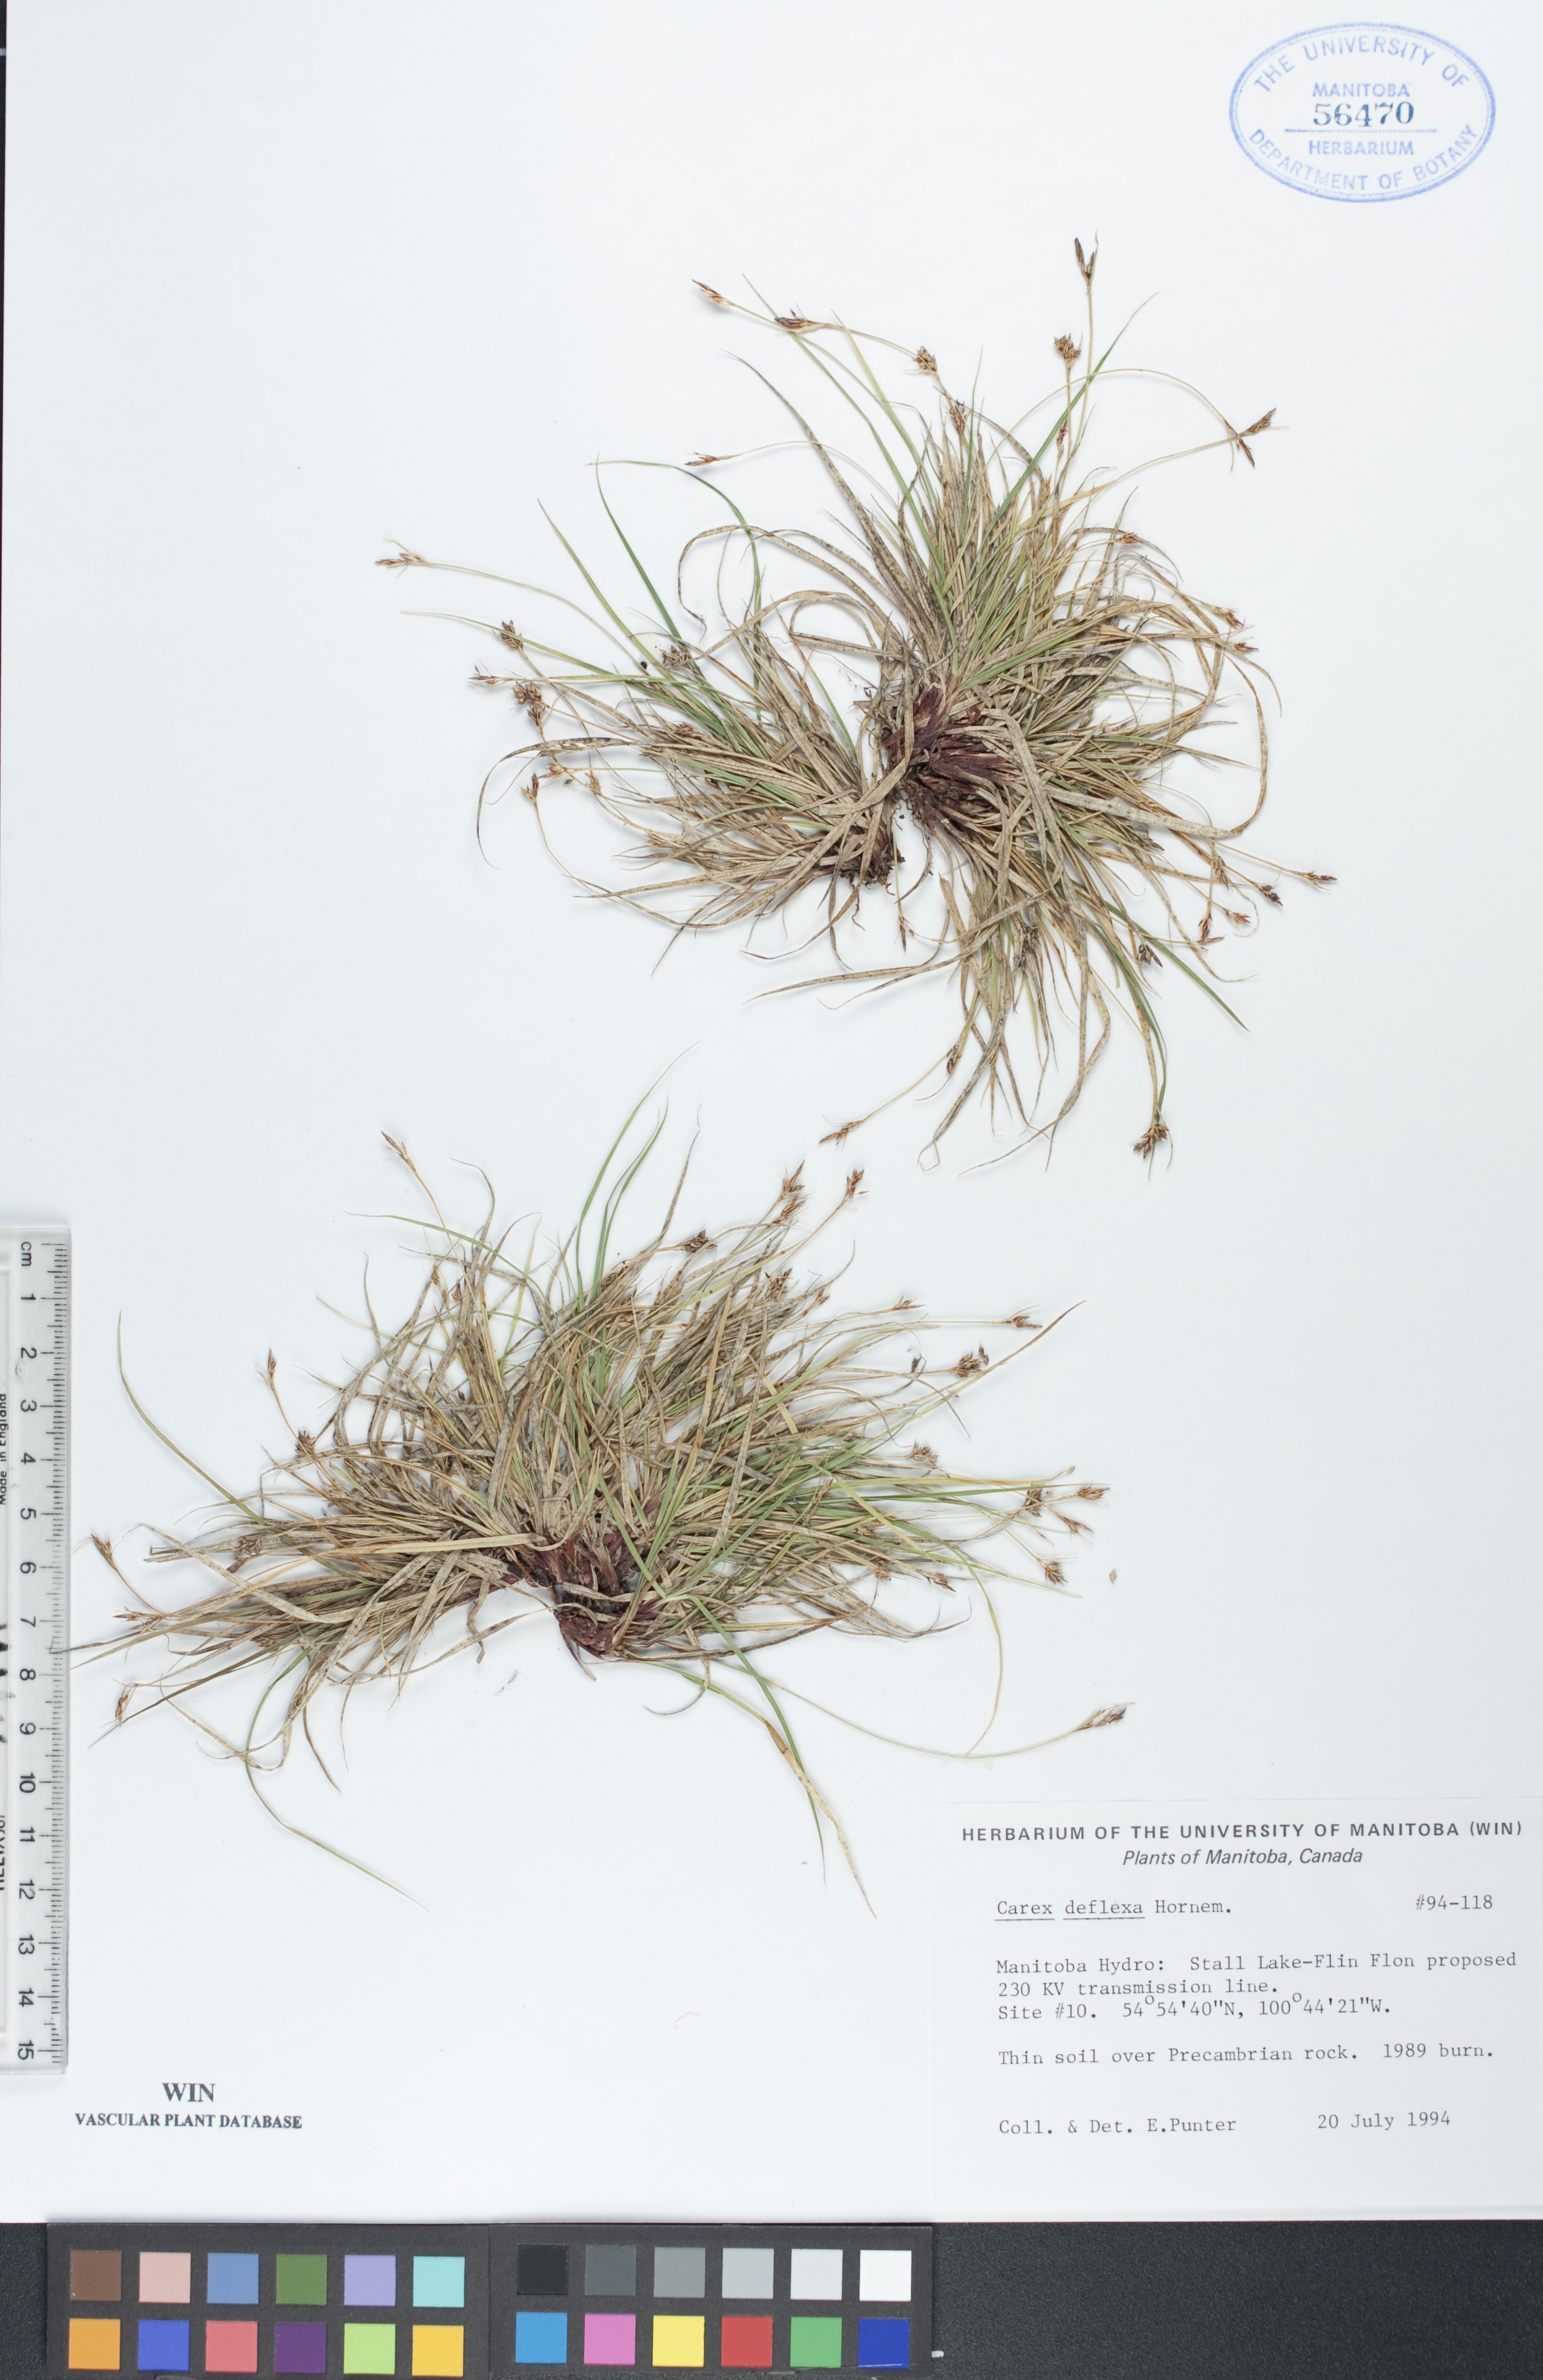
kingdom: Plantae
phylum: Tracheophyta
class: Liliopsida
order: Poales
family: Cyperaceae
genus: Carex
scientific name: Carex deflexa
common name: Bent northern sedge
